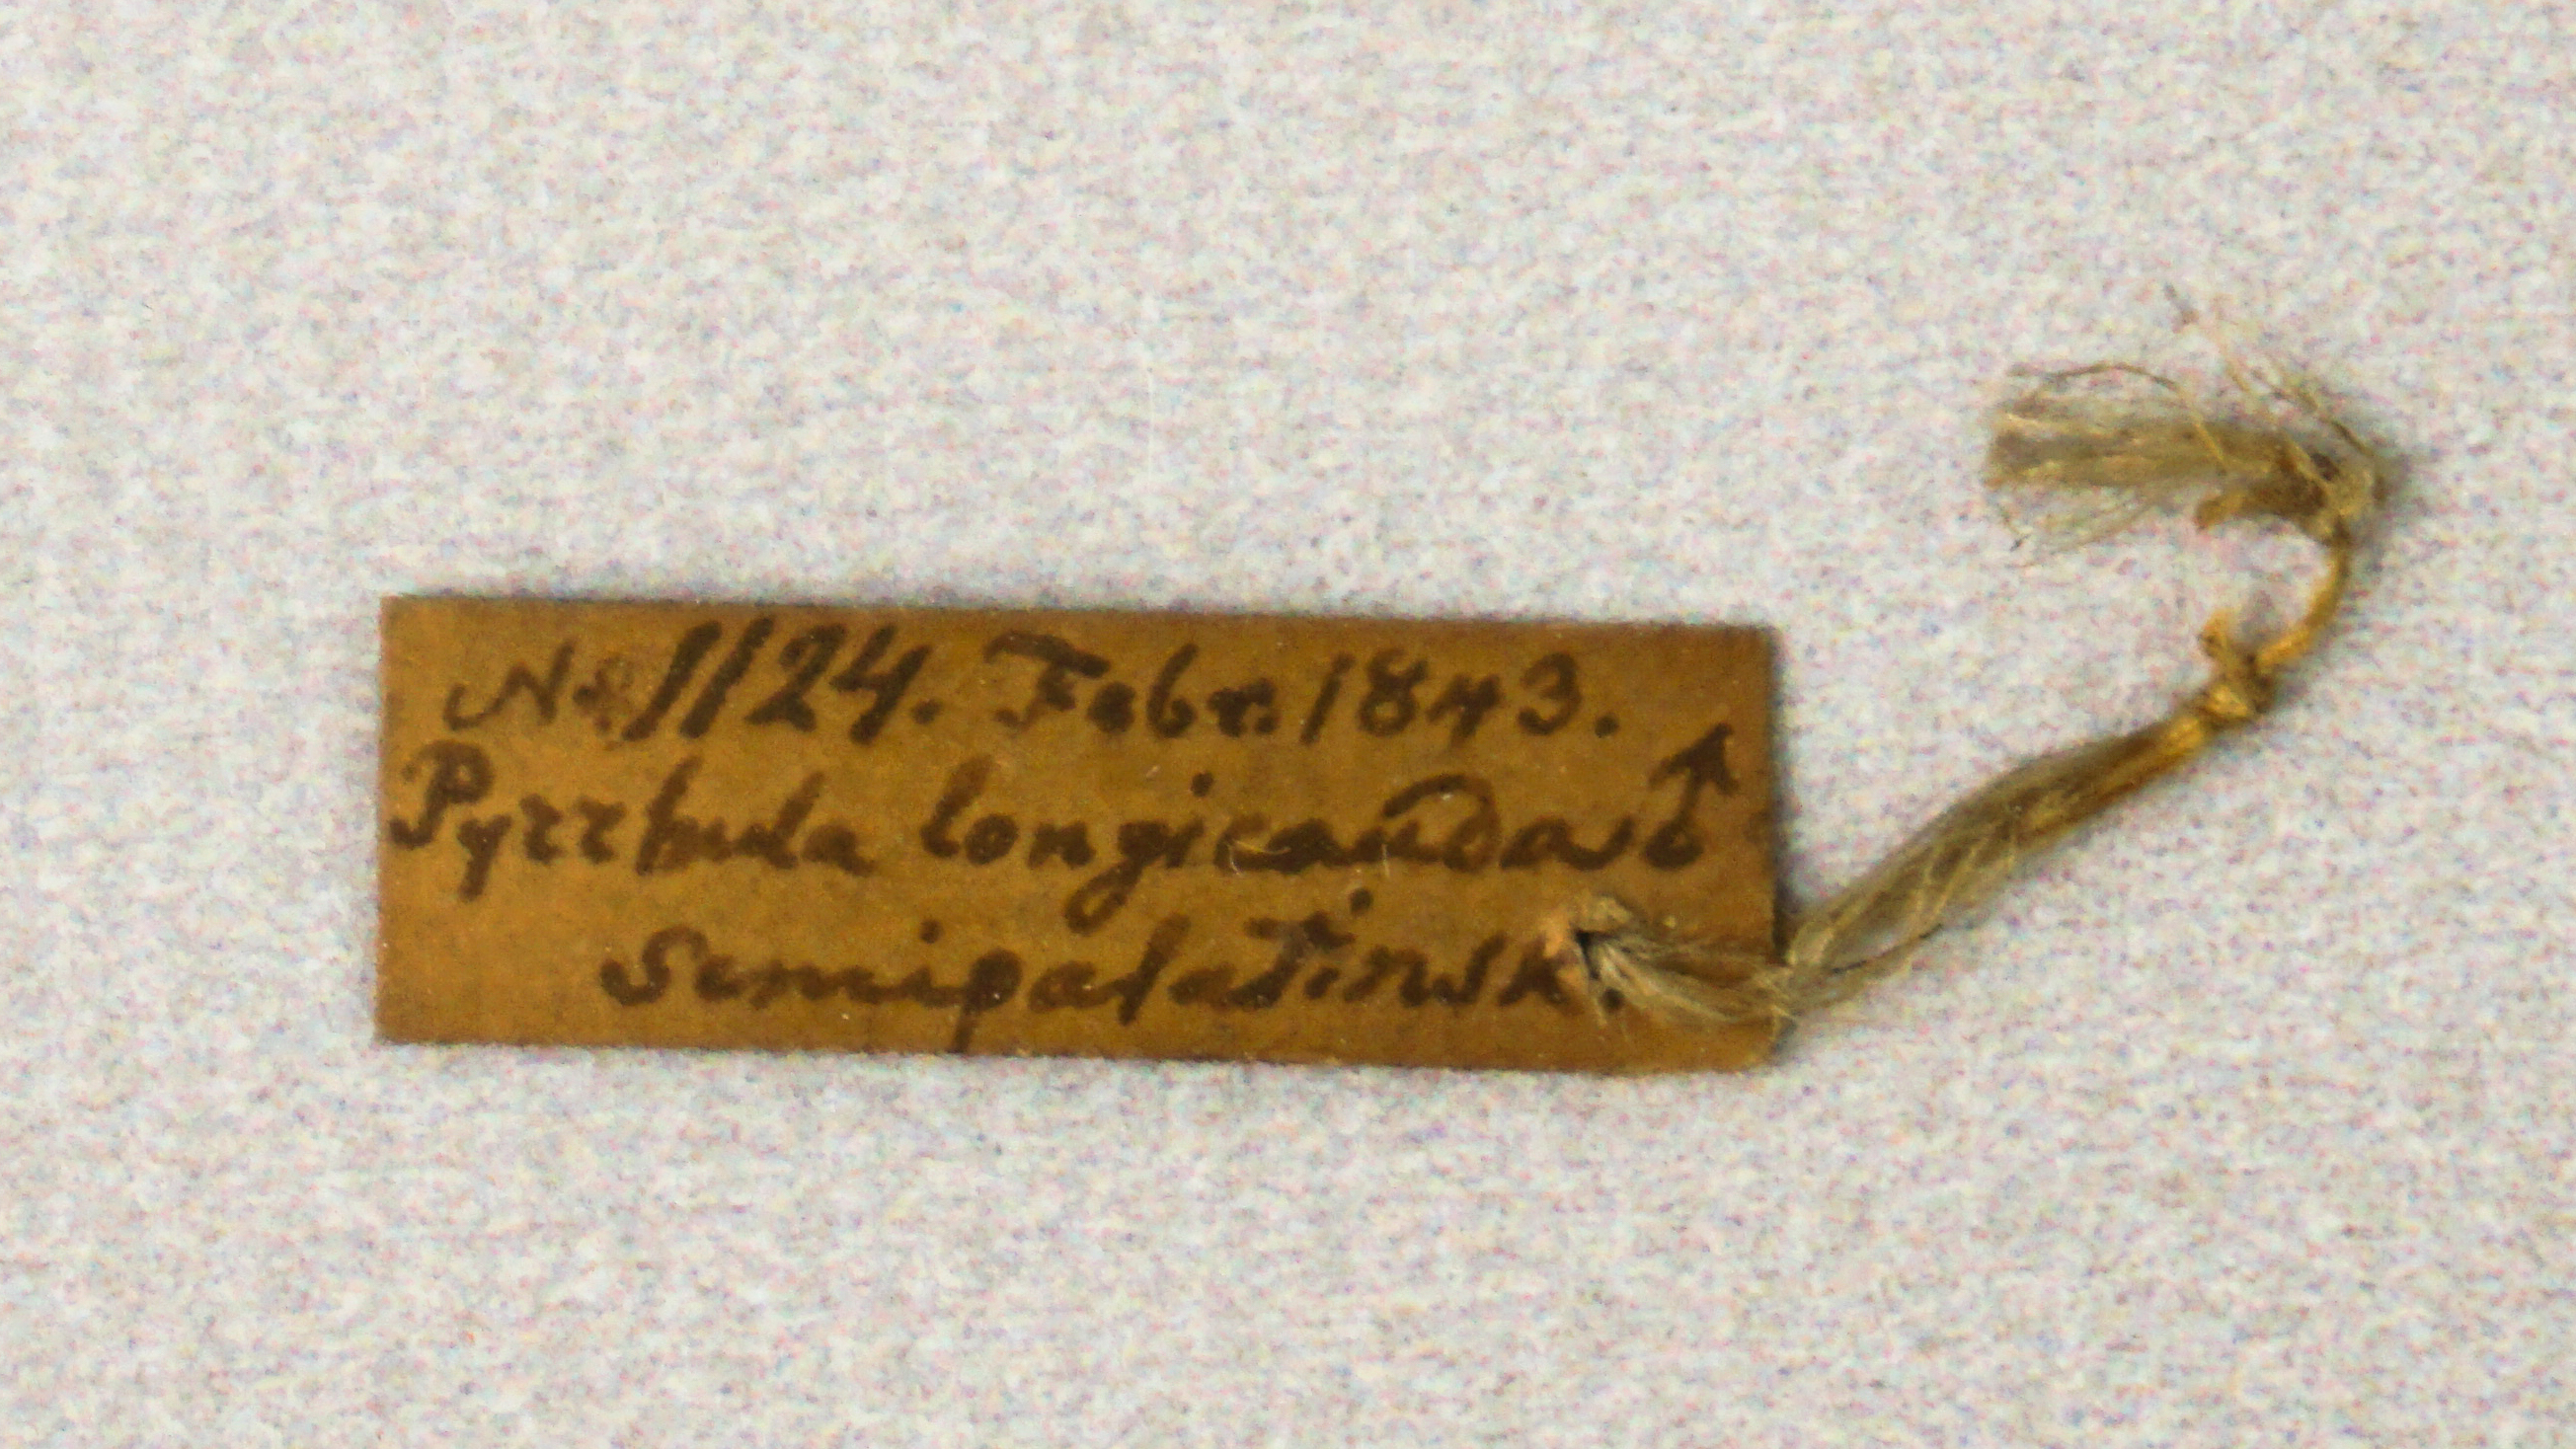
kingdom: Animalia
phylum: Chordata
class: Aves
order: Passeriformes
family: Fringillidae
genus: Carpodacus
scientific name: Carpodacus sibiricus
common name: Long-tailed rosefinch
